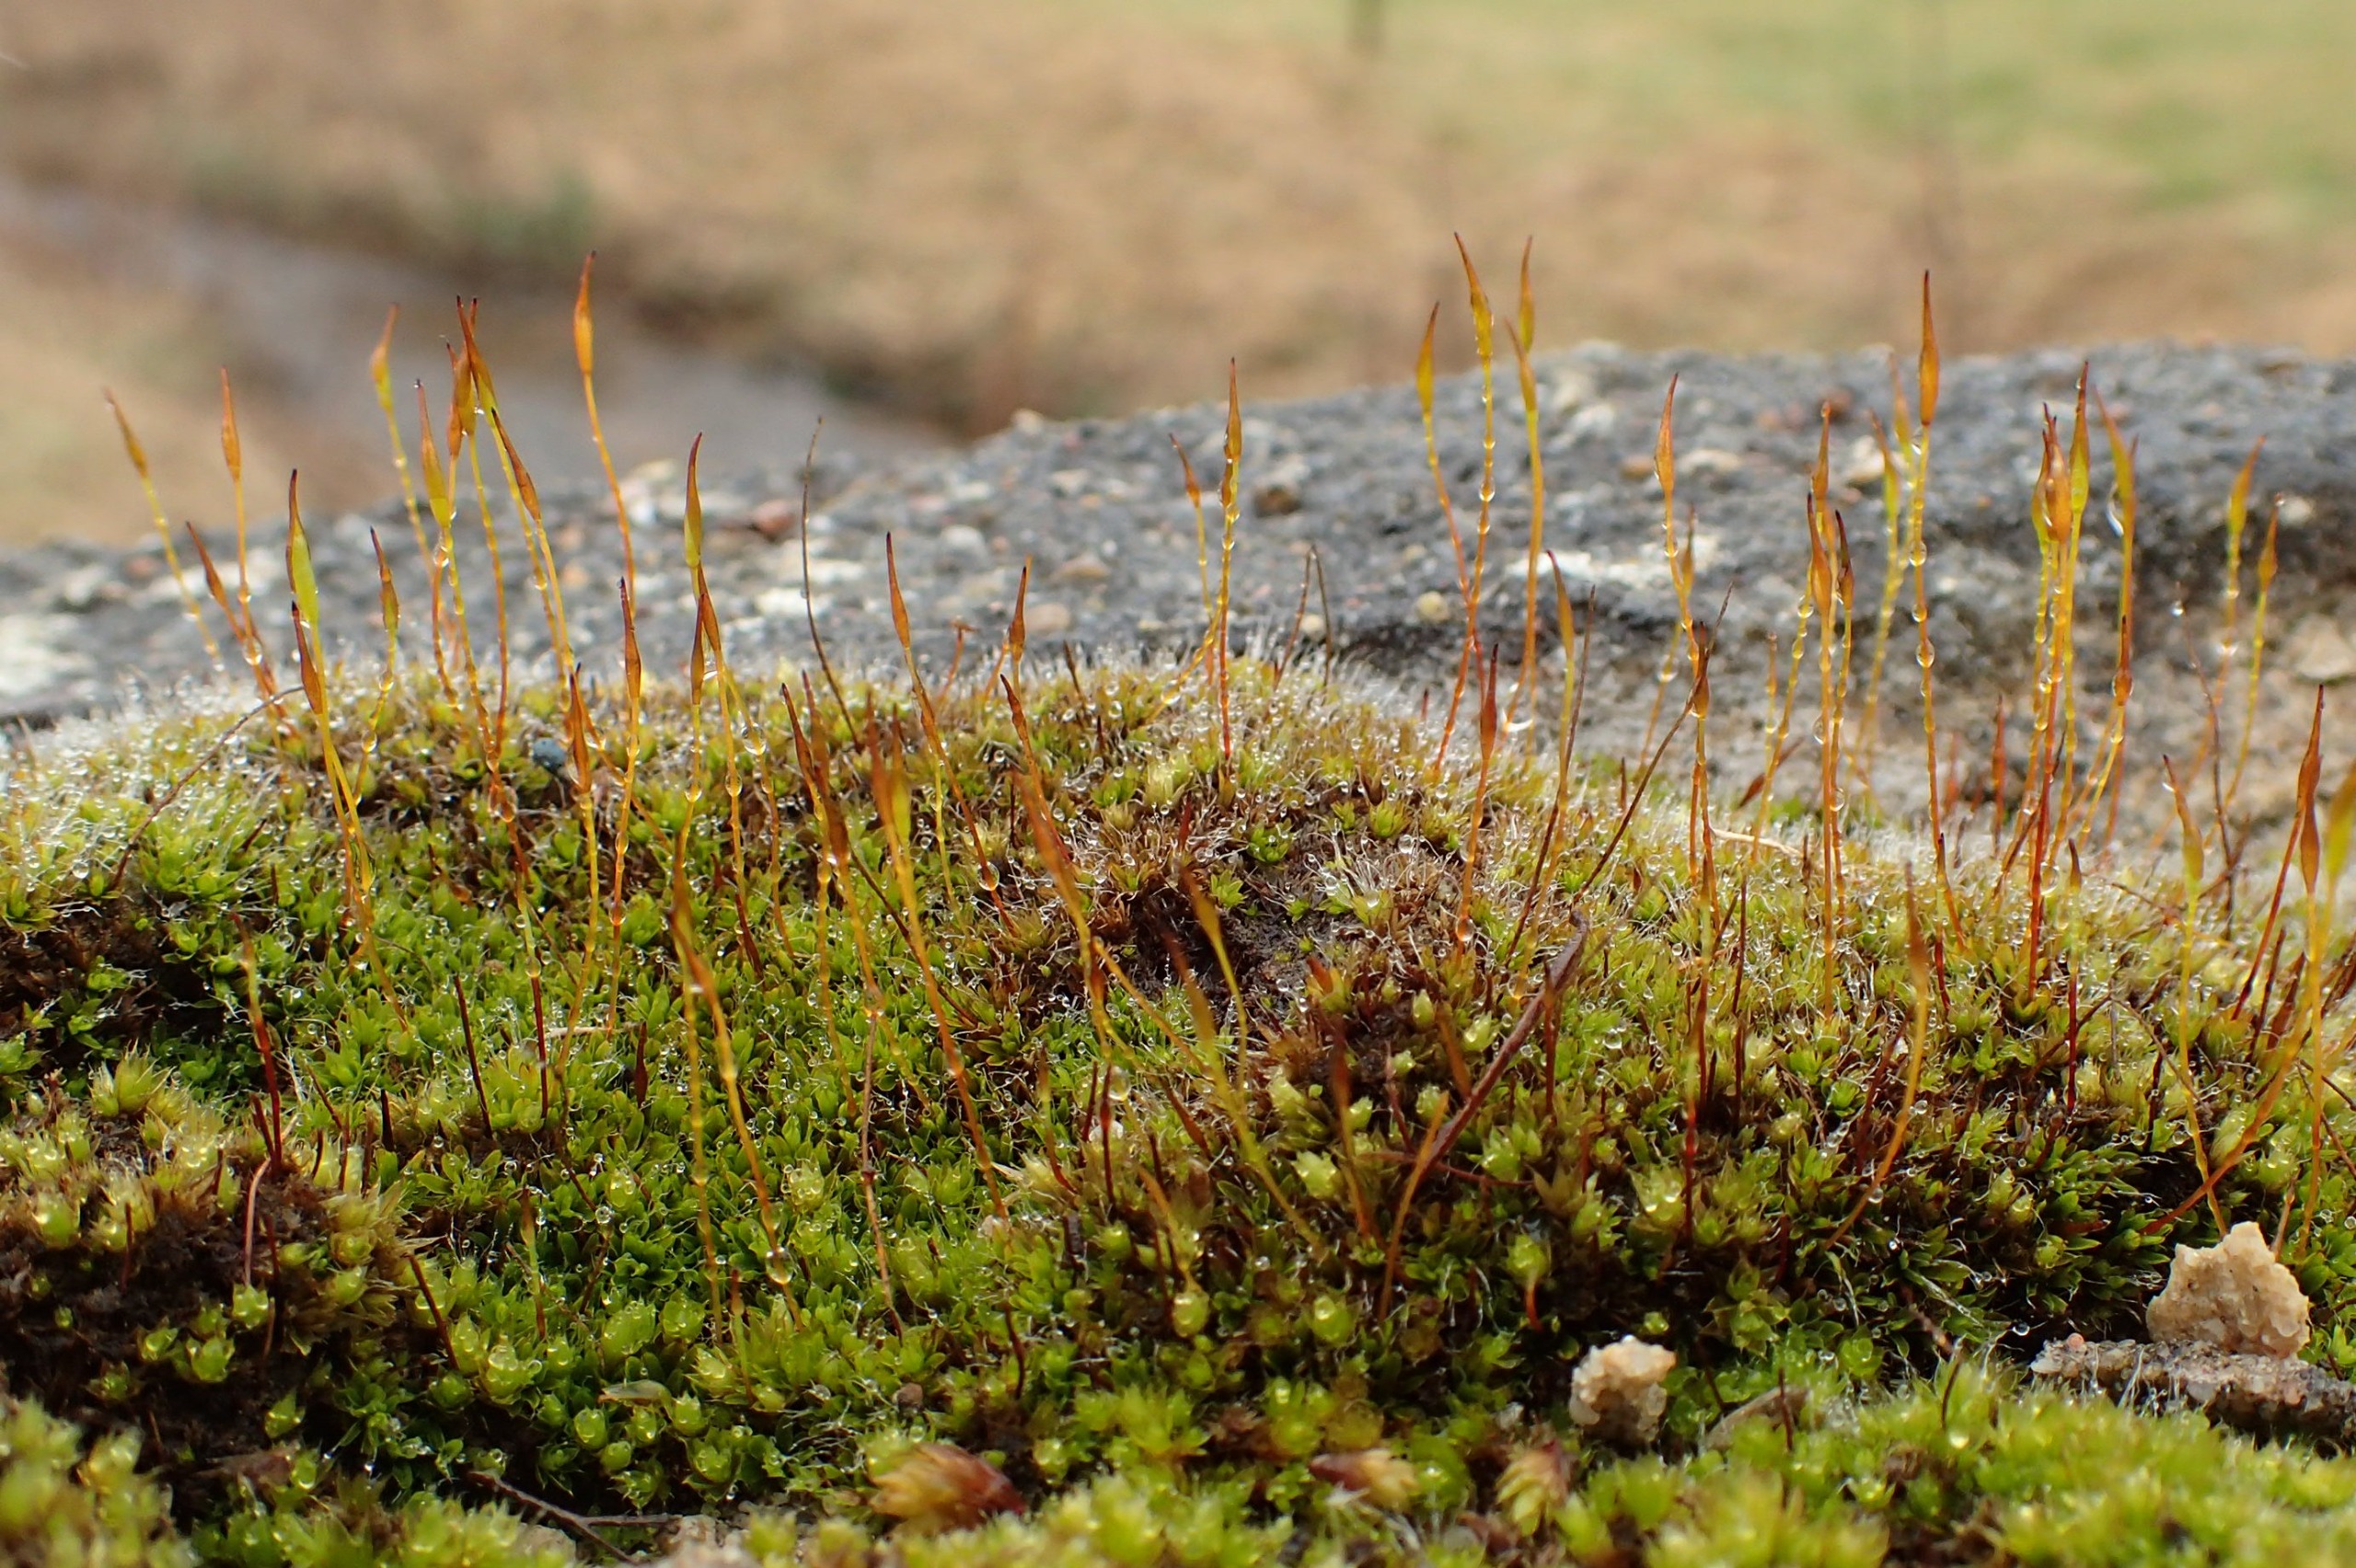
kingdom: Plantae
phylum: Bryophyta
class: Bryopsida
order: Pottiales
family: Pottiaceae
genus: Tortula
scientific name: Tortula muralis
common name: Mur-snotand
